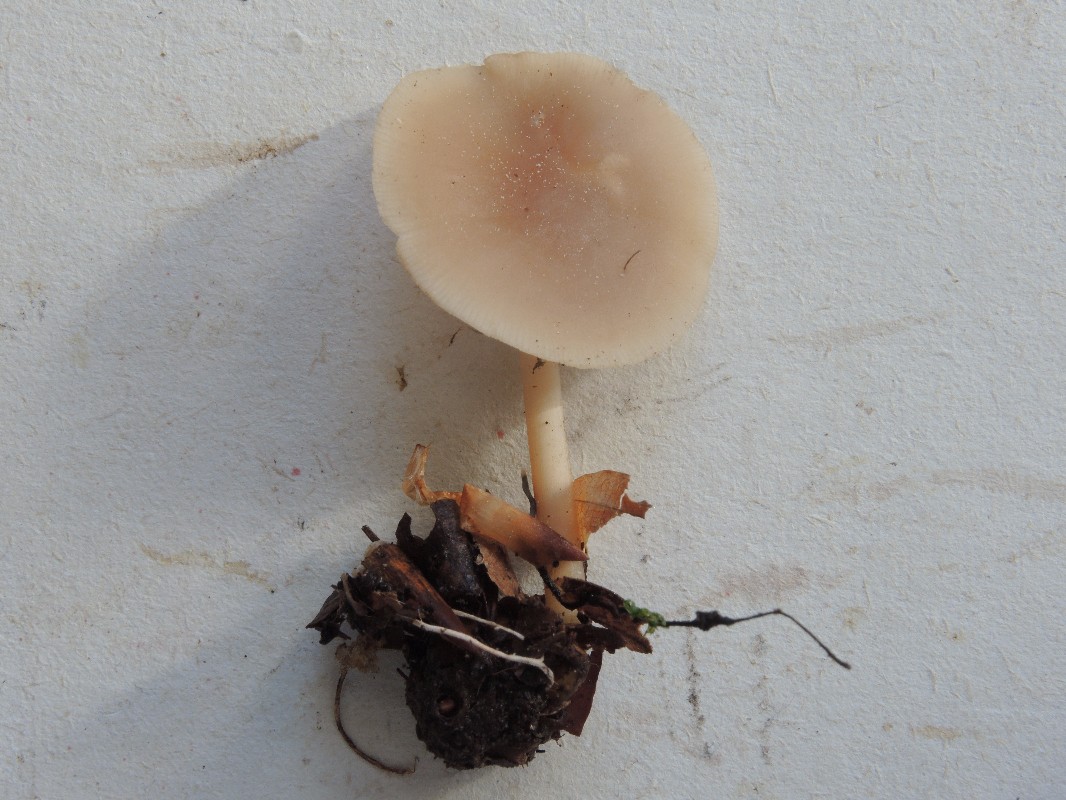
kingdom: Fungi
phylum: Basidiomycota
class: Agaricomycetes
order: Agaricales
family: Omphalotaceae
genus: Gymnopus
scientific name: Gymnopus aquosus
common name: bleg fladhat
